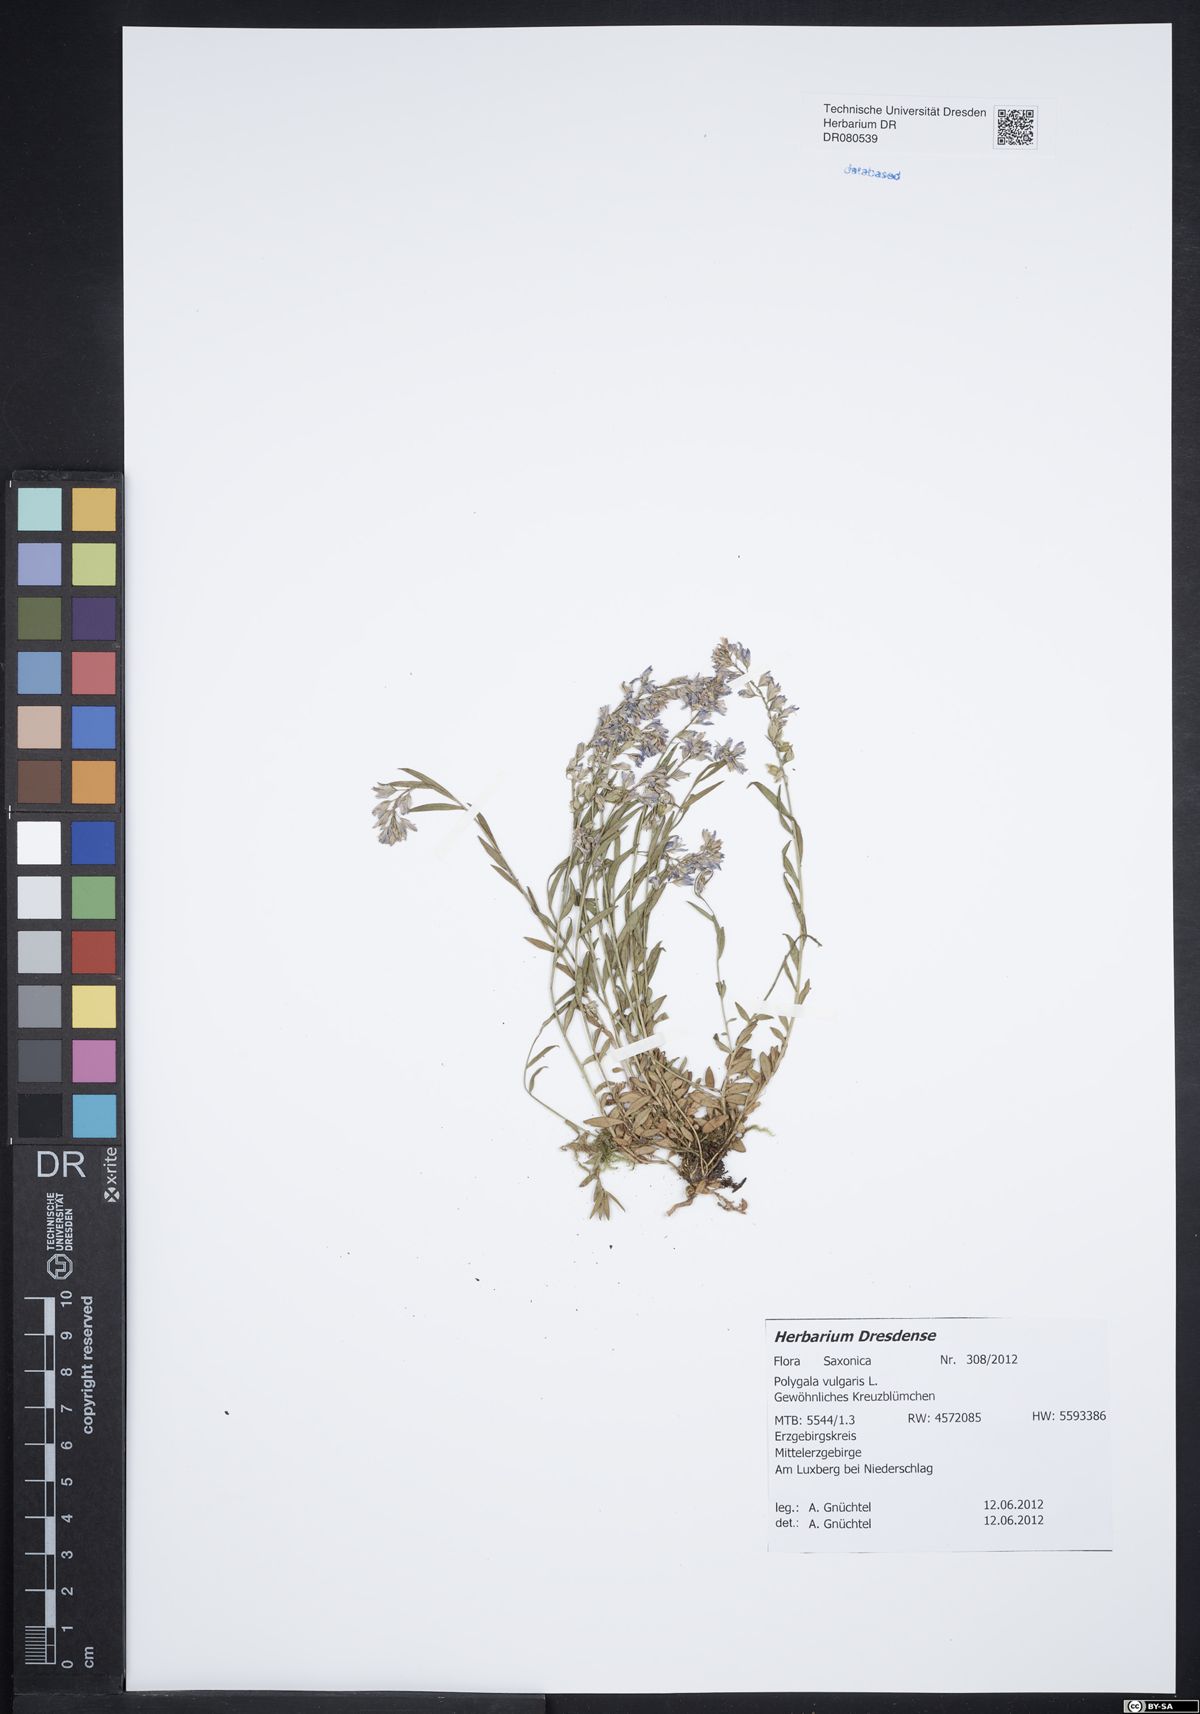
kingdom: Plantae
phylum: Tracheophyta
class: Magnoliopsida
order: Fabales
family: Polygalaceae
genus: Polygala
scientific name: Polygala vulgaris
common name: Common milkwort
